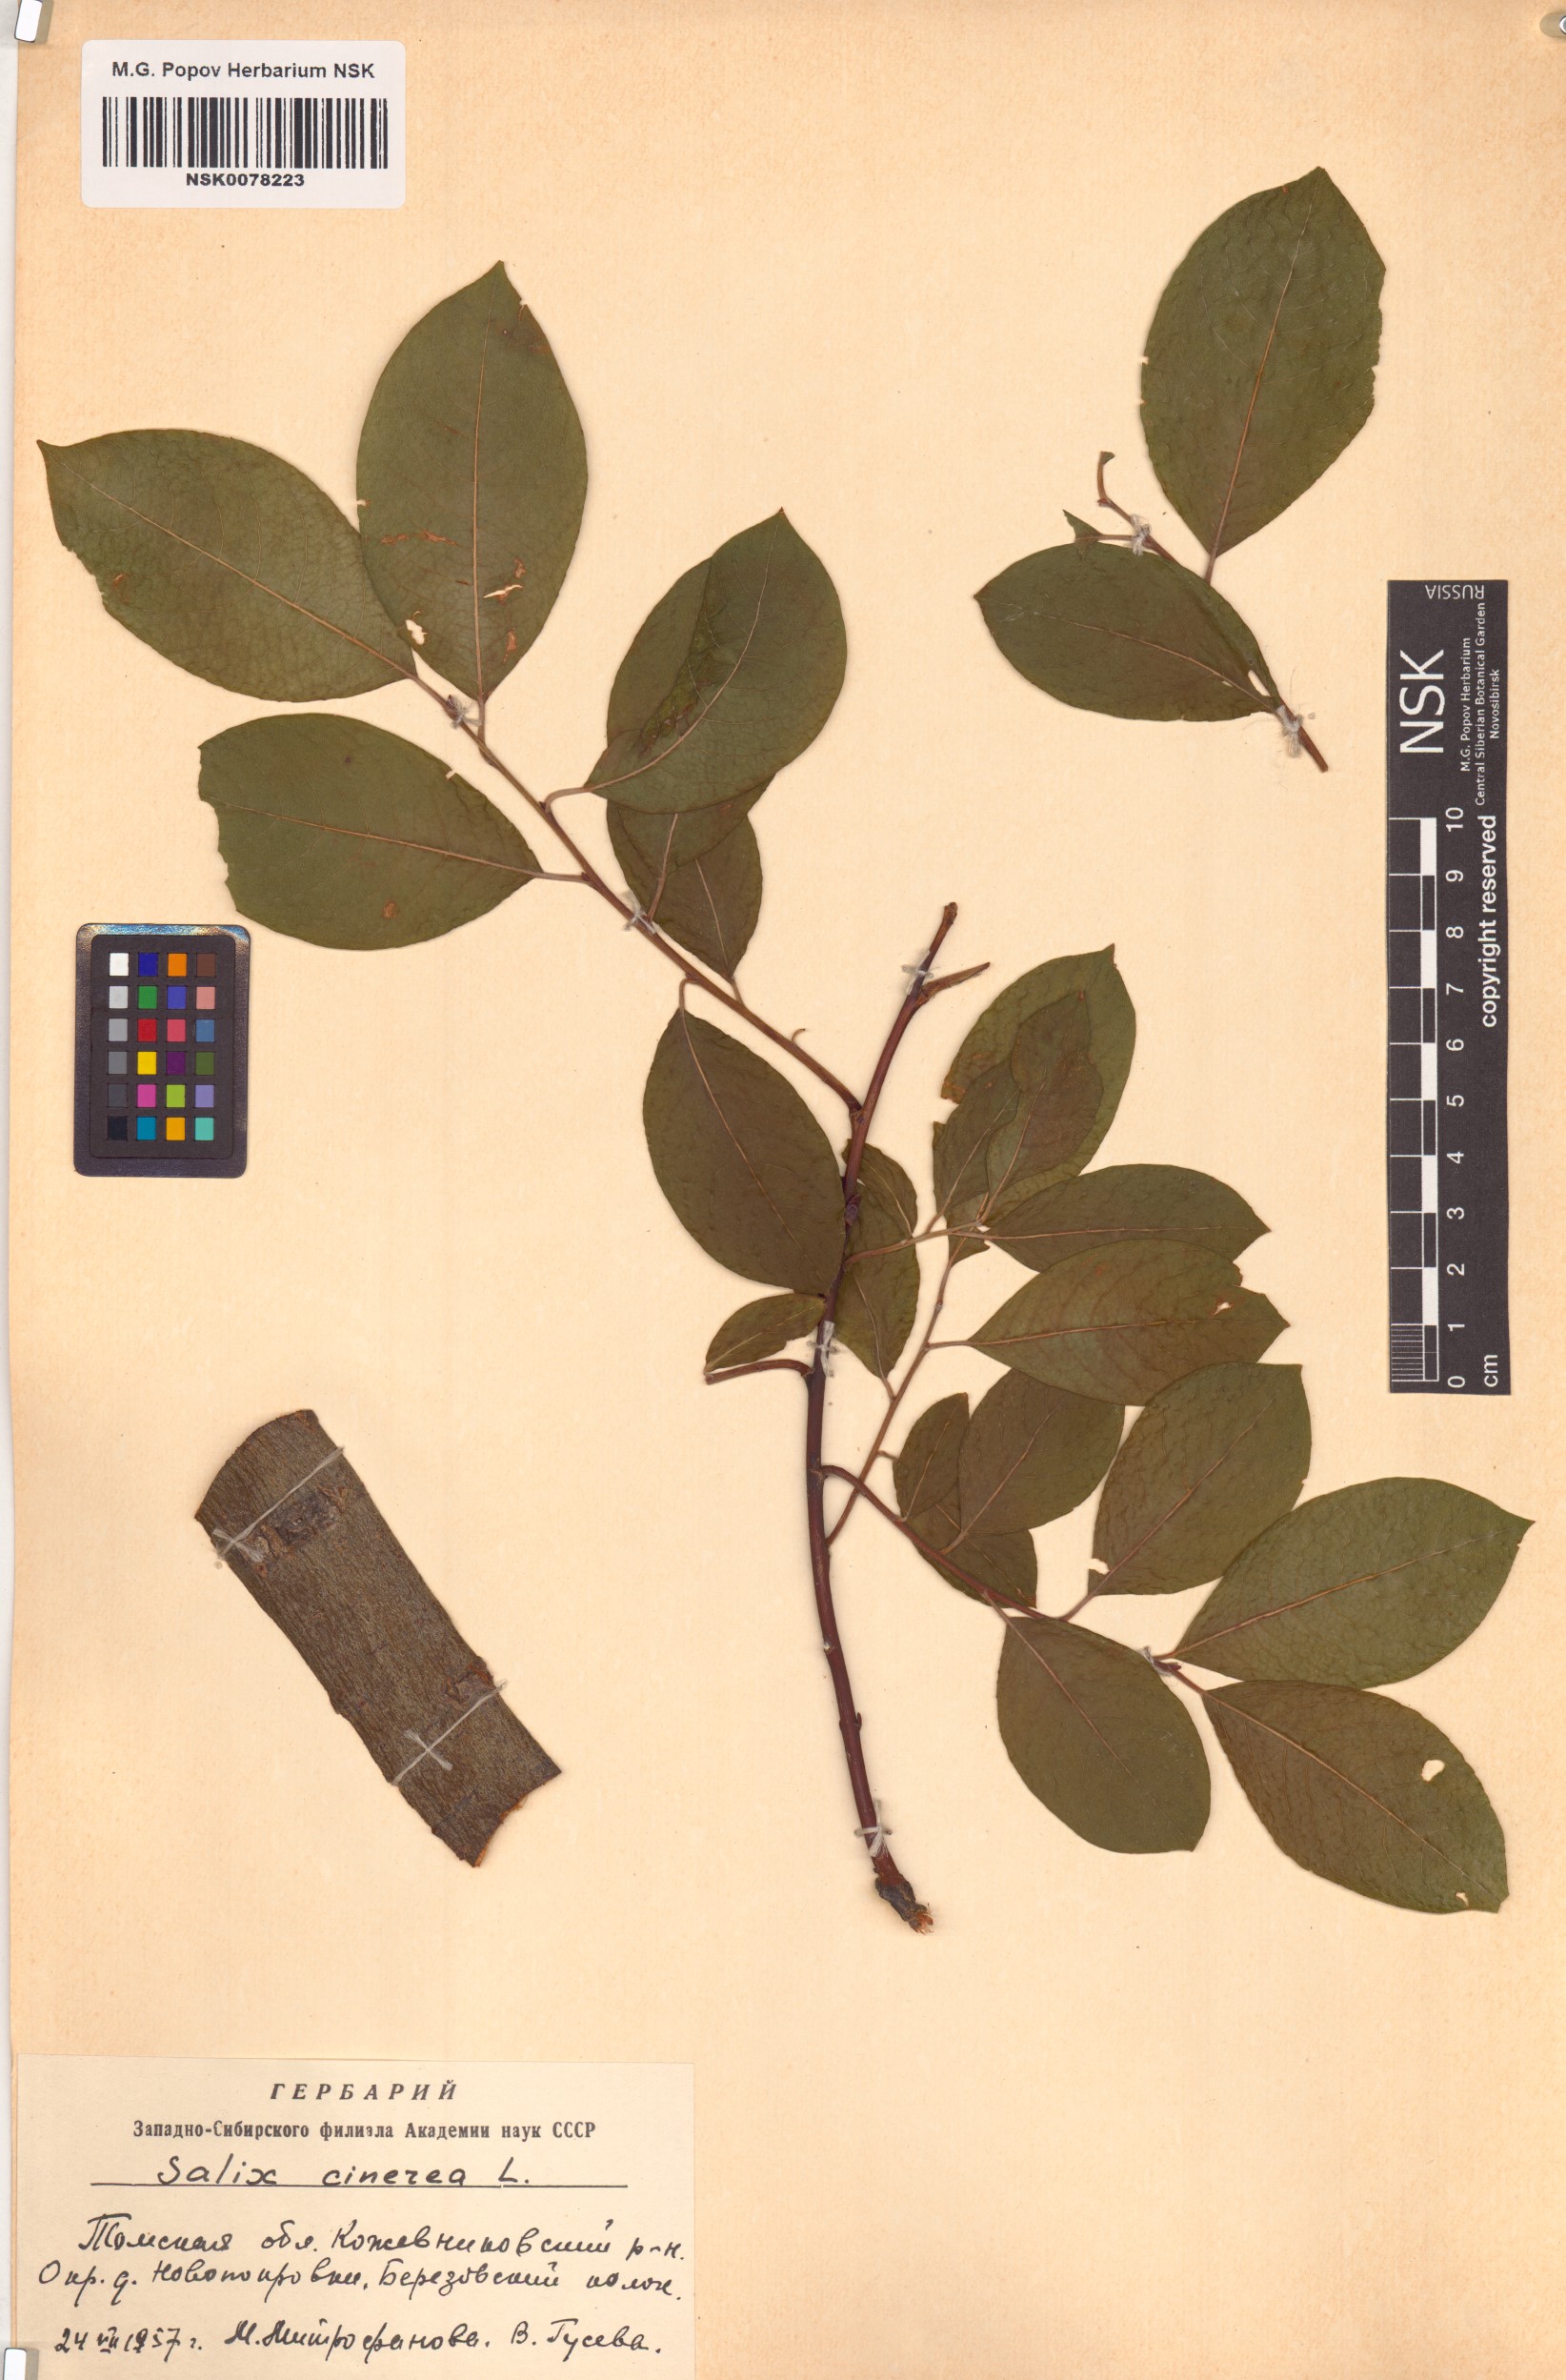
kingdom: Plantae
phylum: Tracheophyta
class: Magnoliopsida
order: Malpighiales
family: Salicaceae
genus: Salix
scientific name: Salix cinerea
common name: Common sallow
